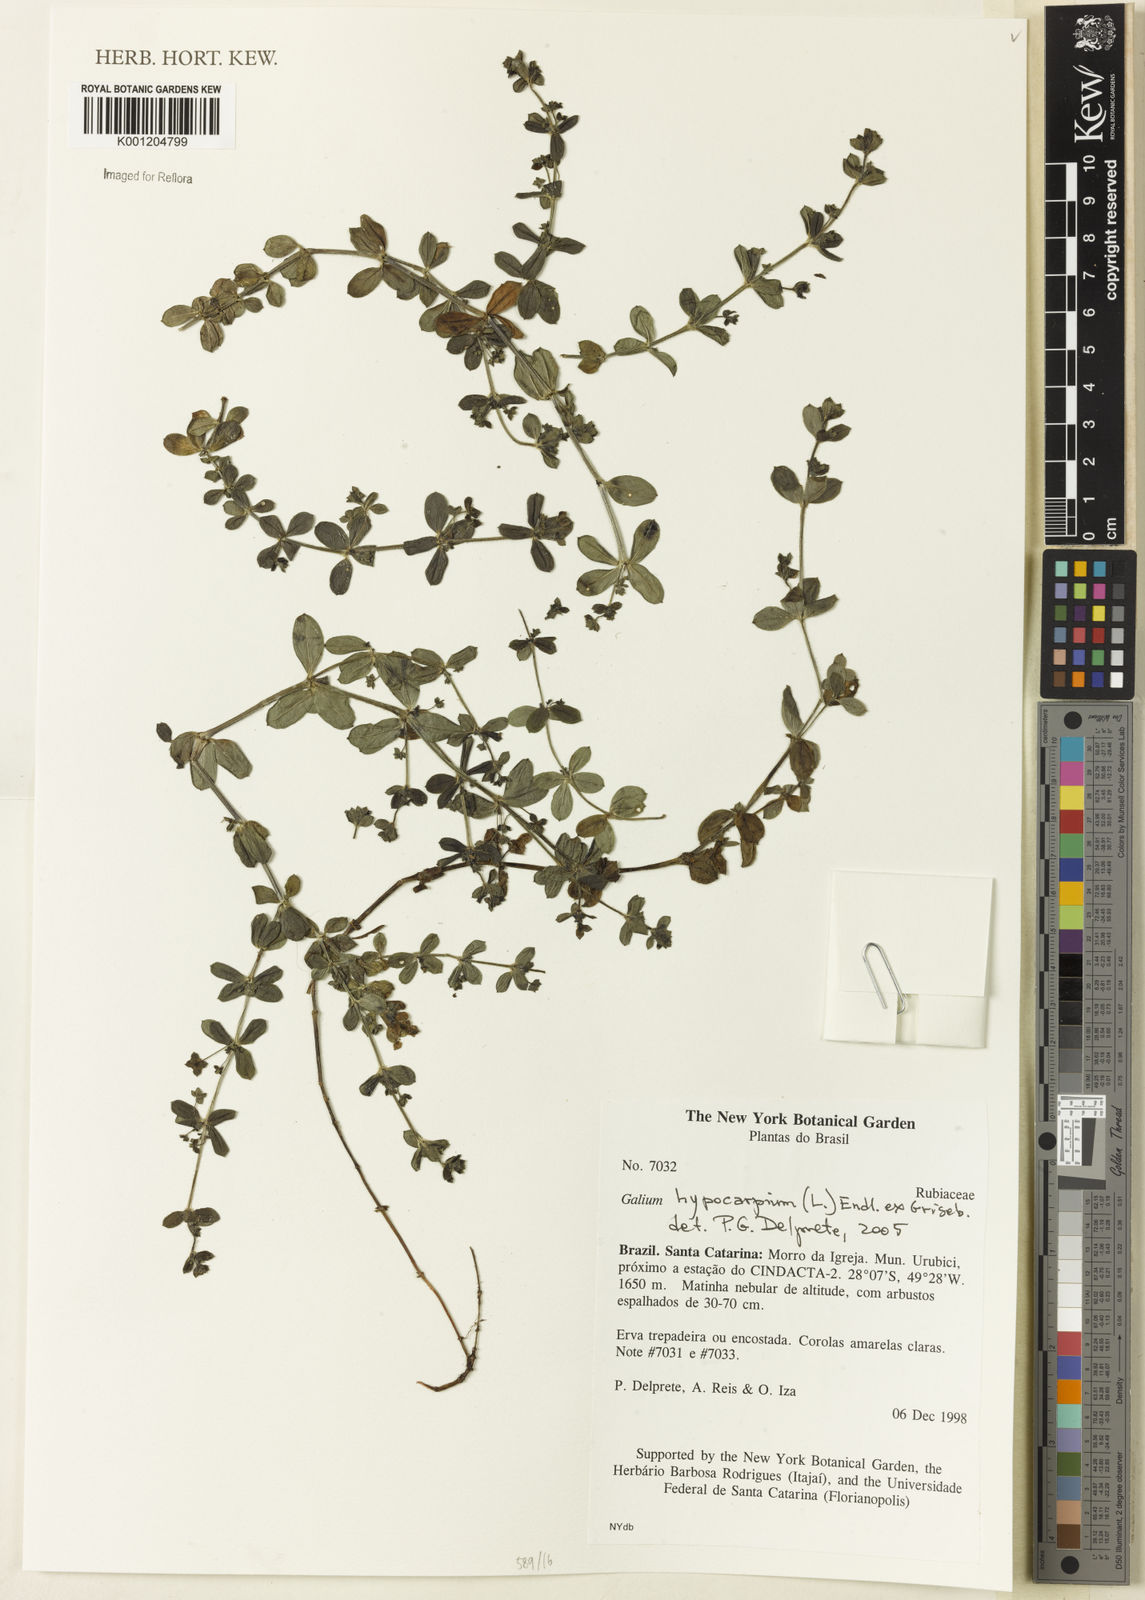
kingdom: Plantae
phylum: Tracheophyta
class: Magnoliopsida
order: Gentianales
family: Rubiaceae
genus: Galium
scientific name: Galium hypocarpium
